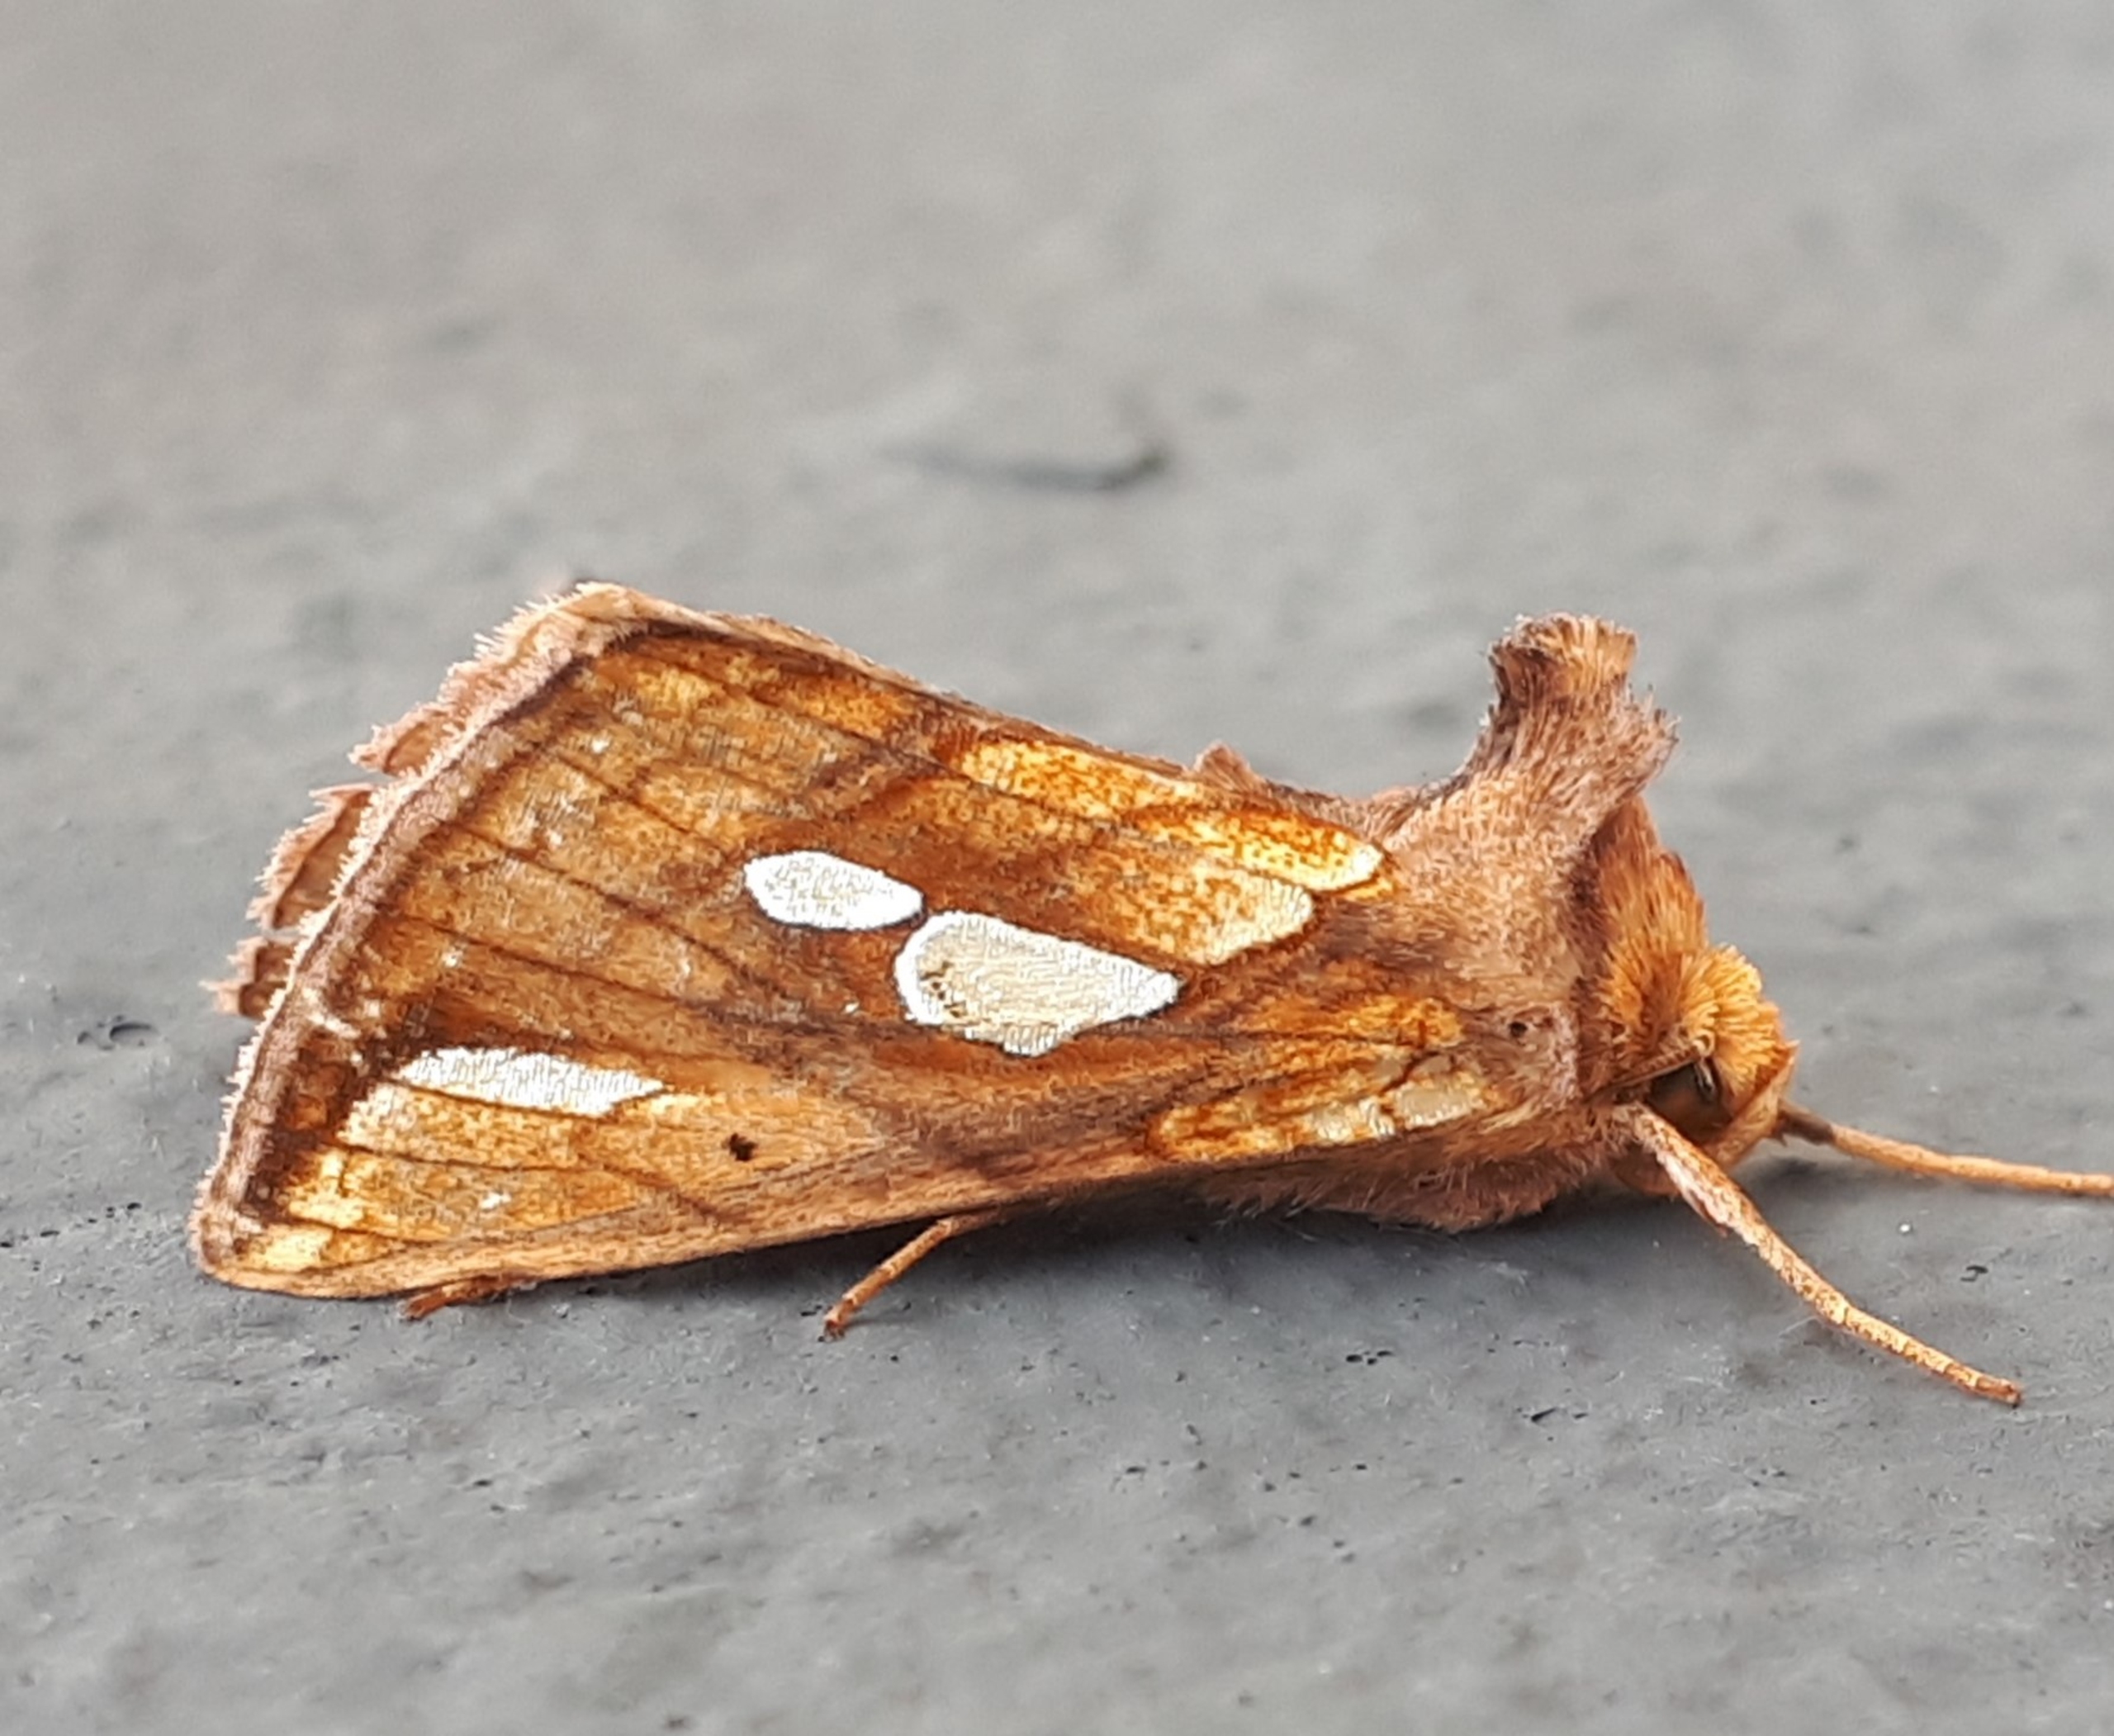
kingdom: Animalia
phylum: Arthropoda
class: Insecta
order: Lepidoptera
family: Noctuidae
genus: Plusia
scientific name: Plusia festucae
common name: Svingelugle
